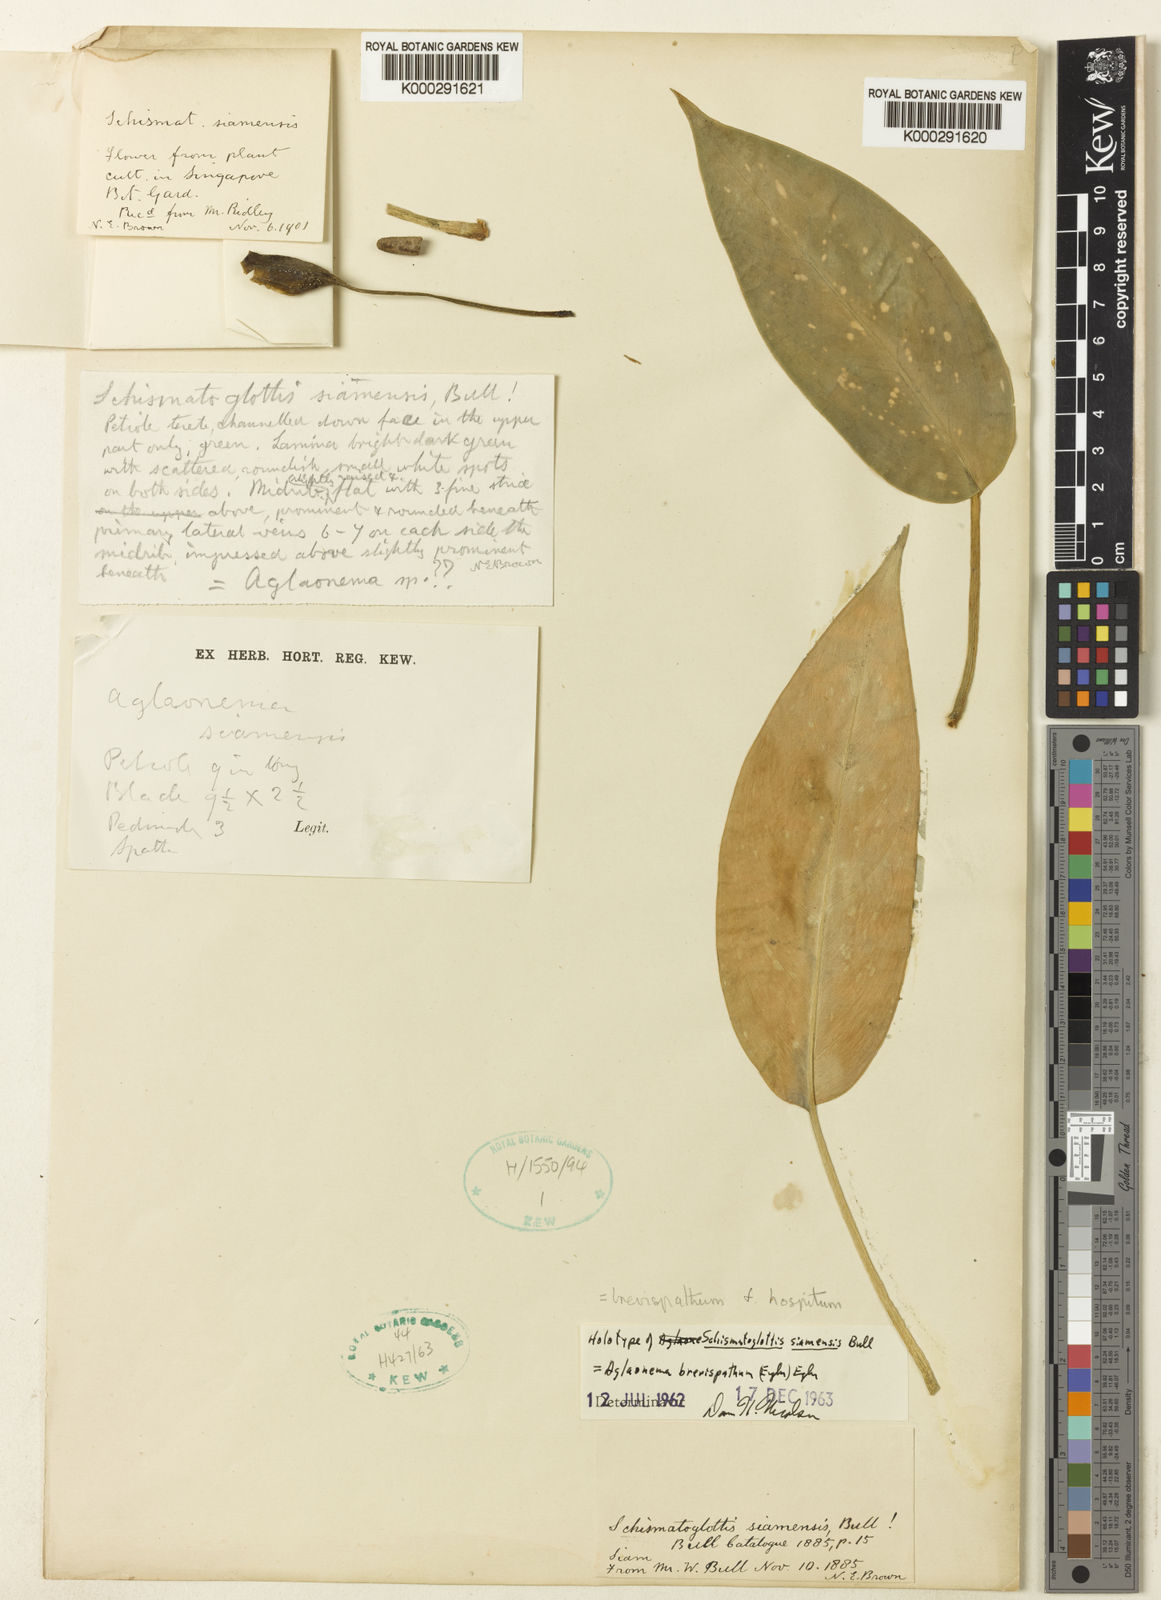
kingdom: Plantae
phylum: Tracheophyta
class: Liliopsida
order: Alismatales
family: Araceae
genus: Aglaonema
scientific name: Aglaonema brevispathum
